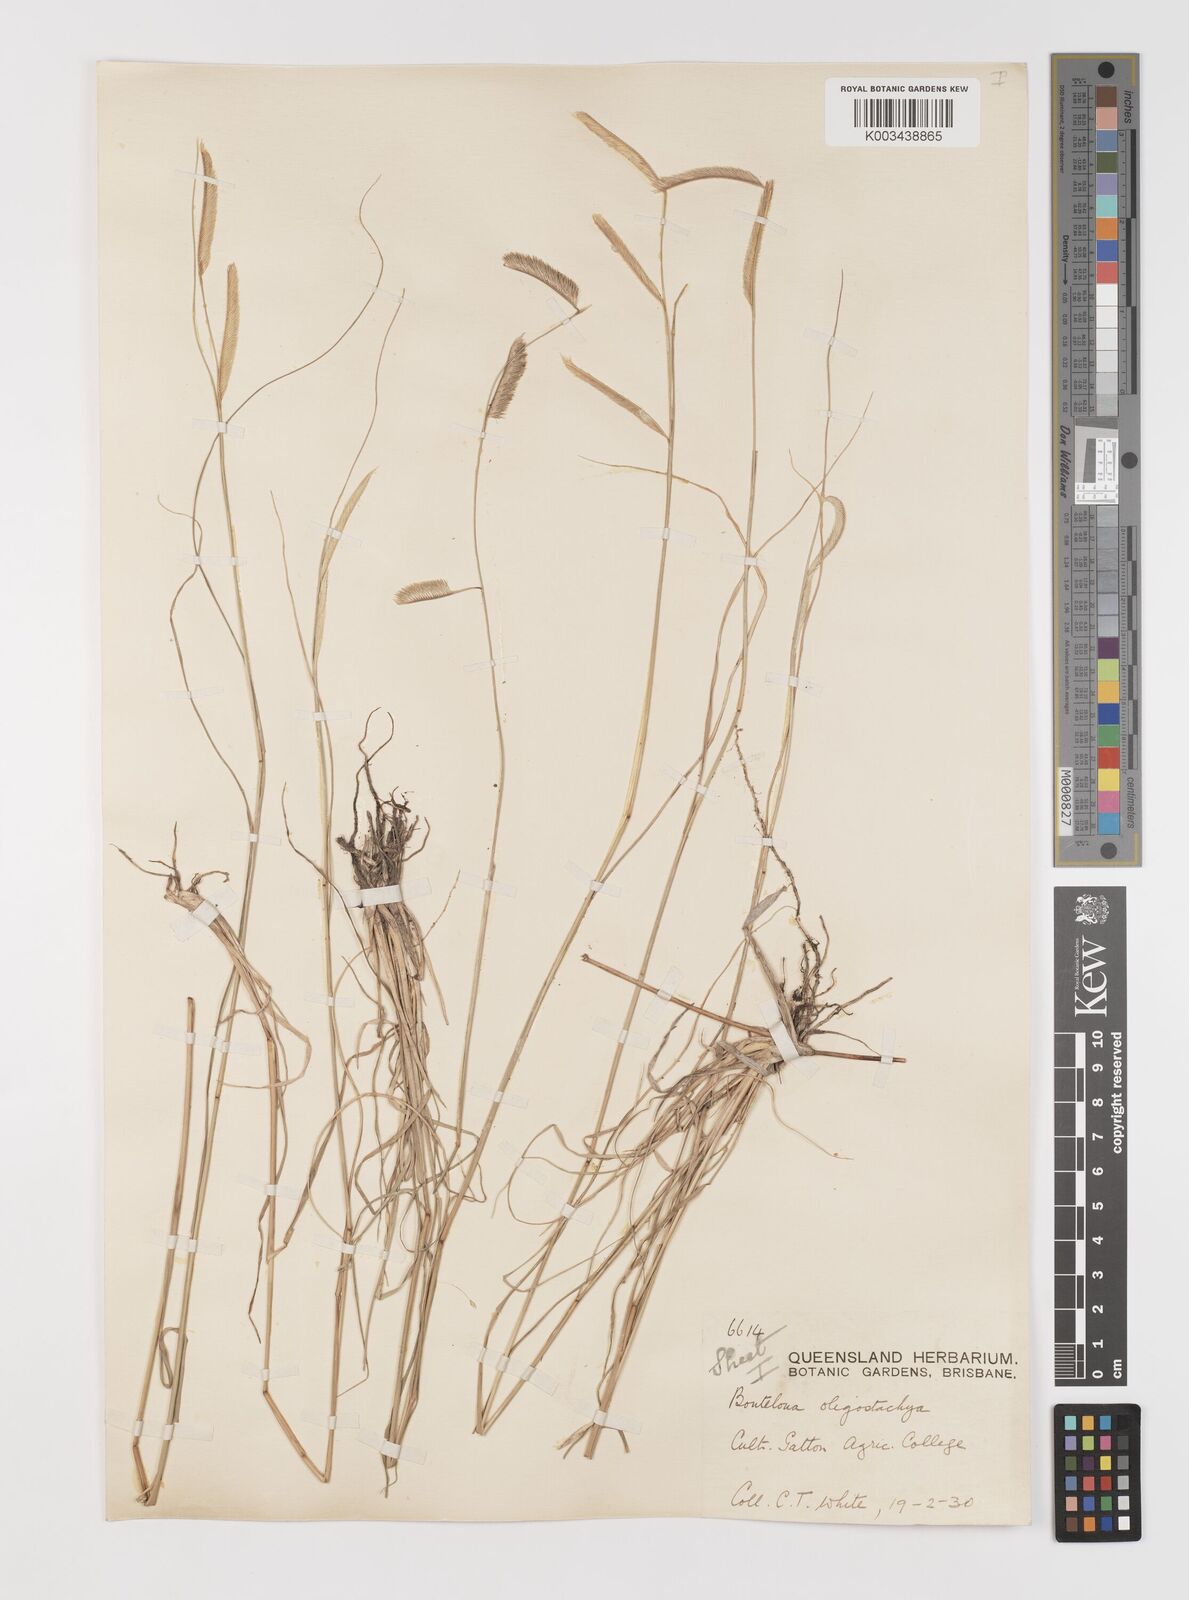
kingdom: Plantae
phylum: Tracheophyta
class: Liliopsida
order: Poales
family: Poaceae
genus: Bouteloua
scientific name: Bouteloua aristidoides
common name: Needle grama
